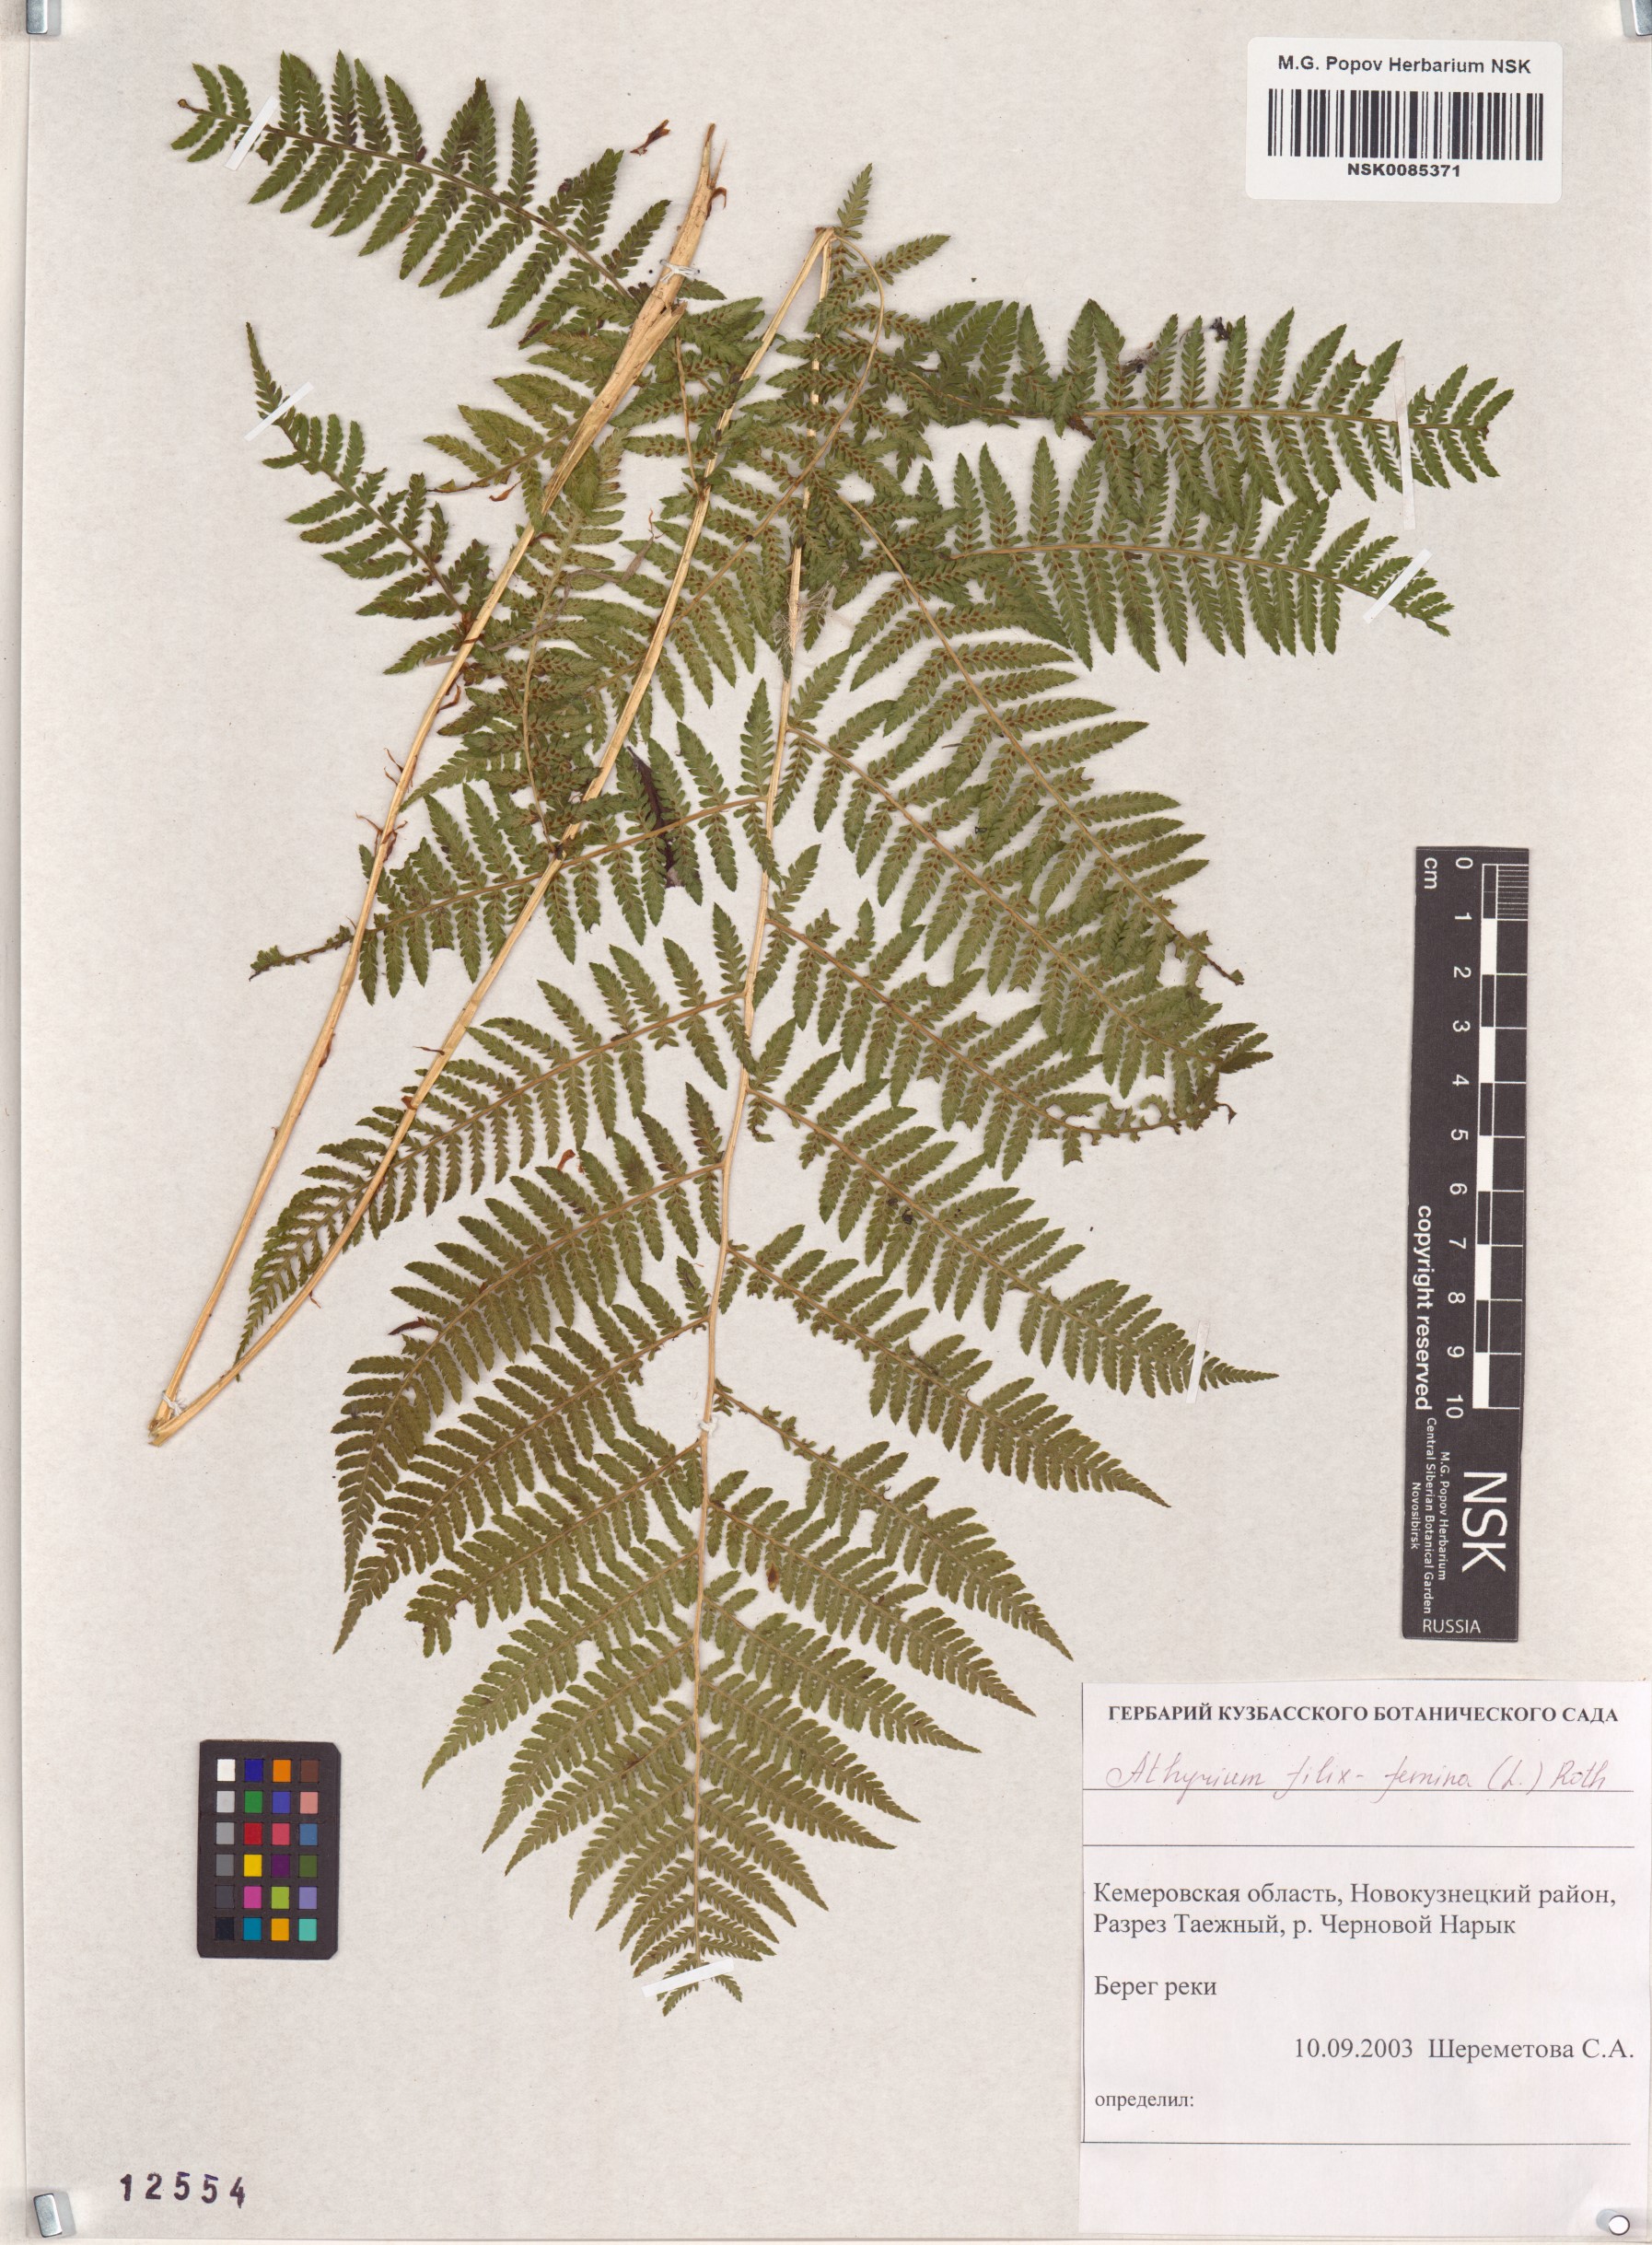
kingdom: Plantae
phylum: Tracheophyta
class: Polypodiopsida
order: Polypodiales
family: Athyriaceae
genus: Athyrium
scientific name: Athyrium filix-femina
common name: Lady fern
